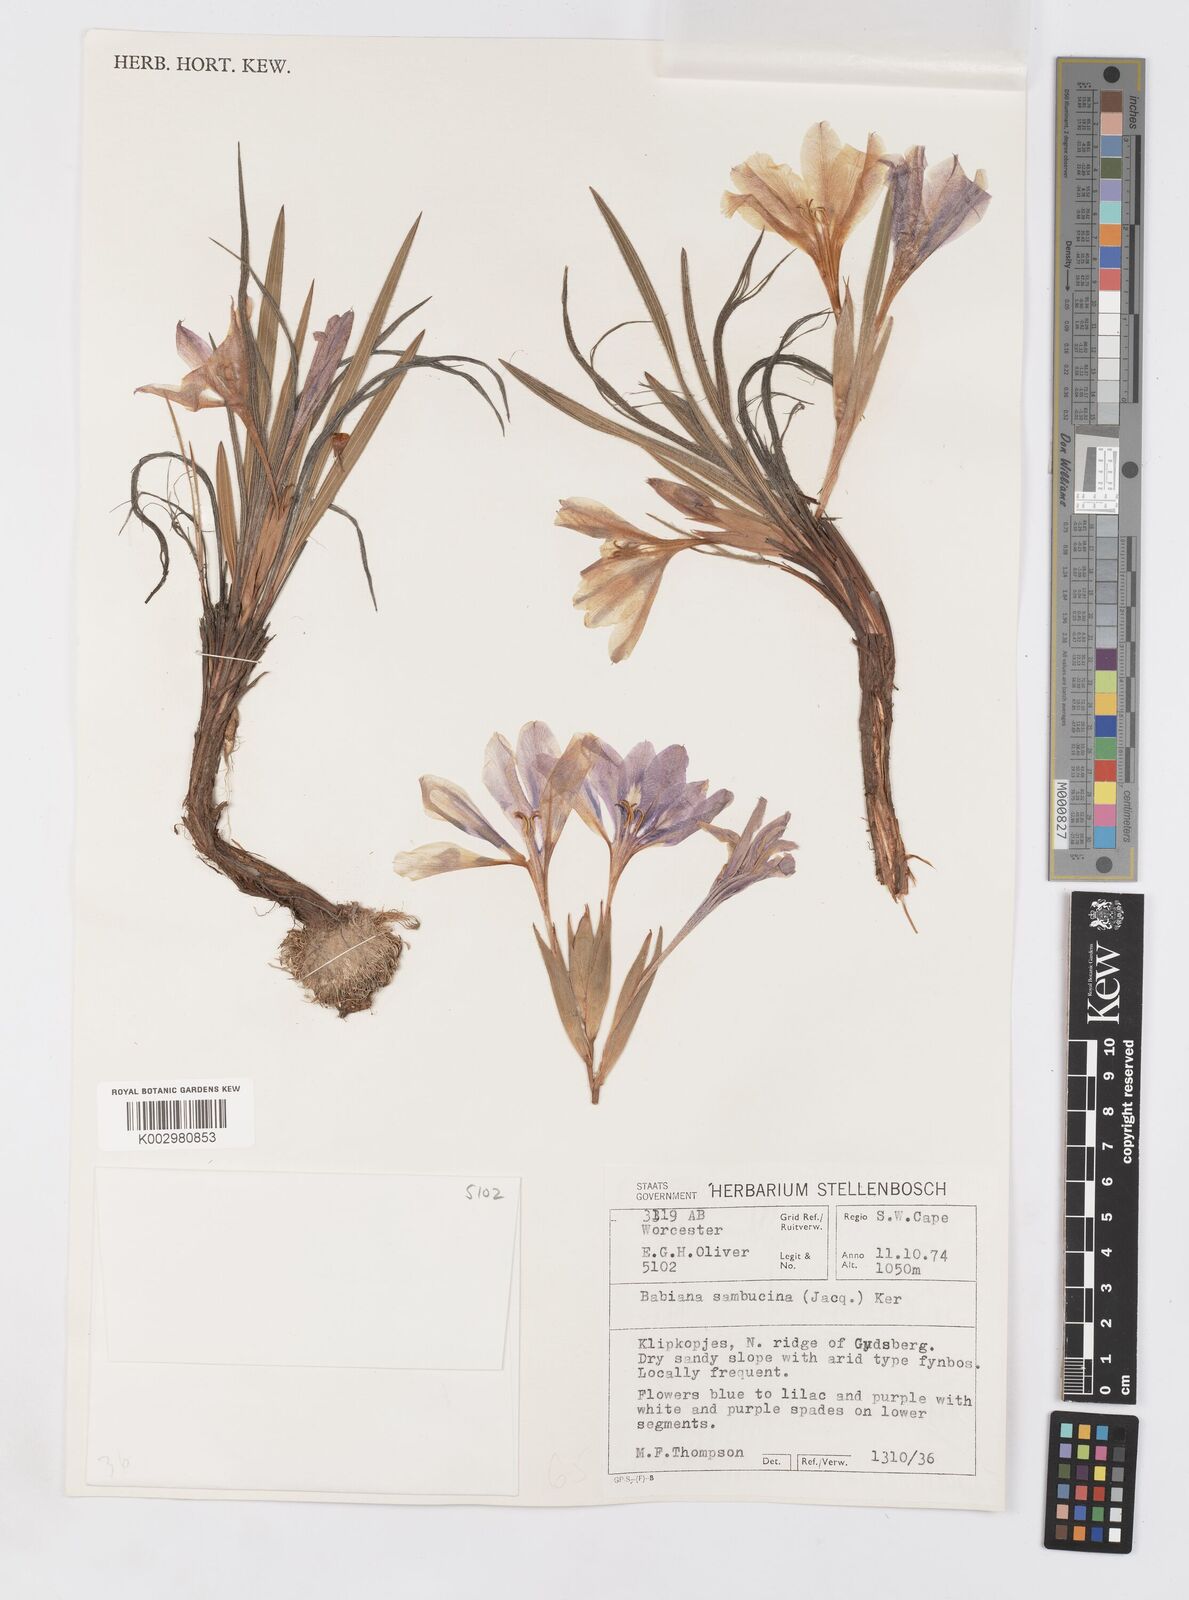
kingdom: Plantae
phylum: Tracheophyta
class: Liliopsida
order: Asparagales
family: Iridaceae
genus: Babiana
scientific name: Babiana sambucina
